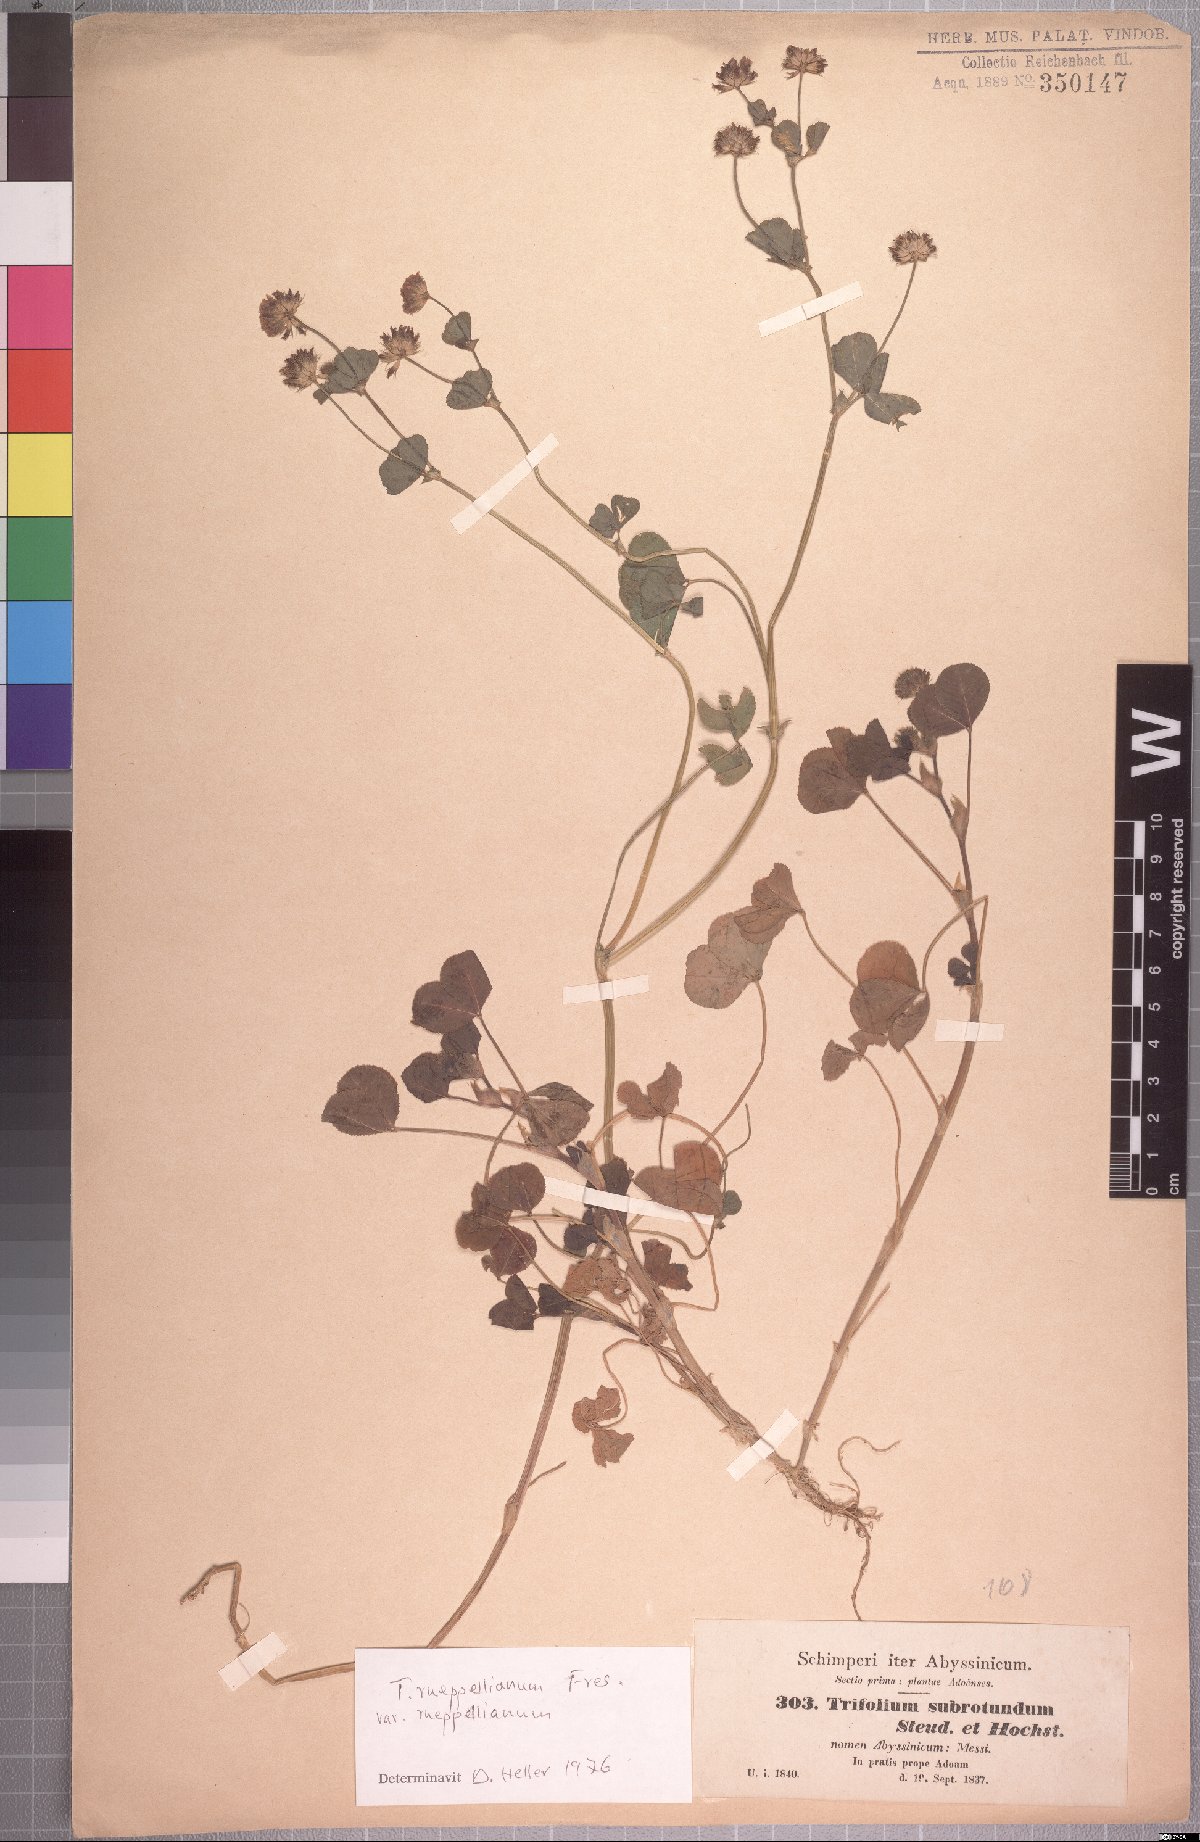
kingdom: Plantae
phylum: Tracheophyta
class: Magnoliopsida
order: Fabales
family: Fabaceae
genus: Trifolium
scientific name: Trifolium rueppellianum
